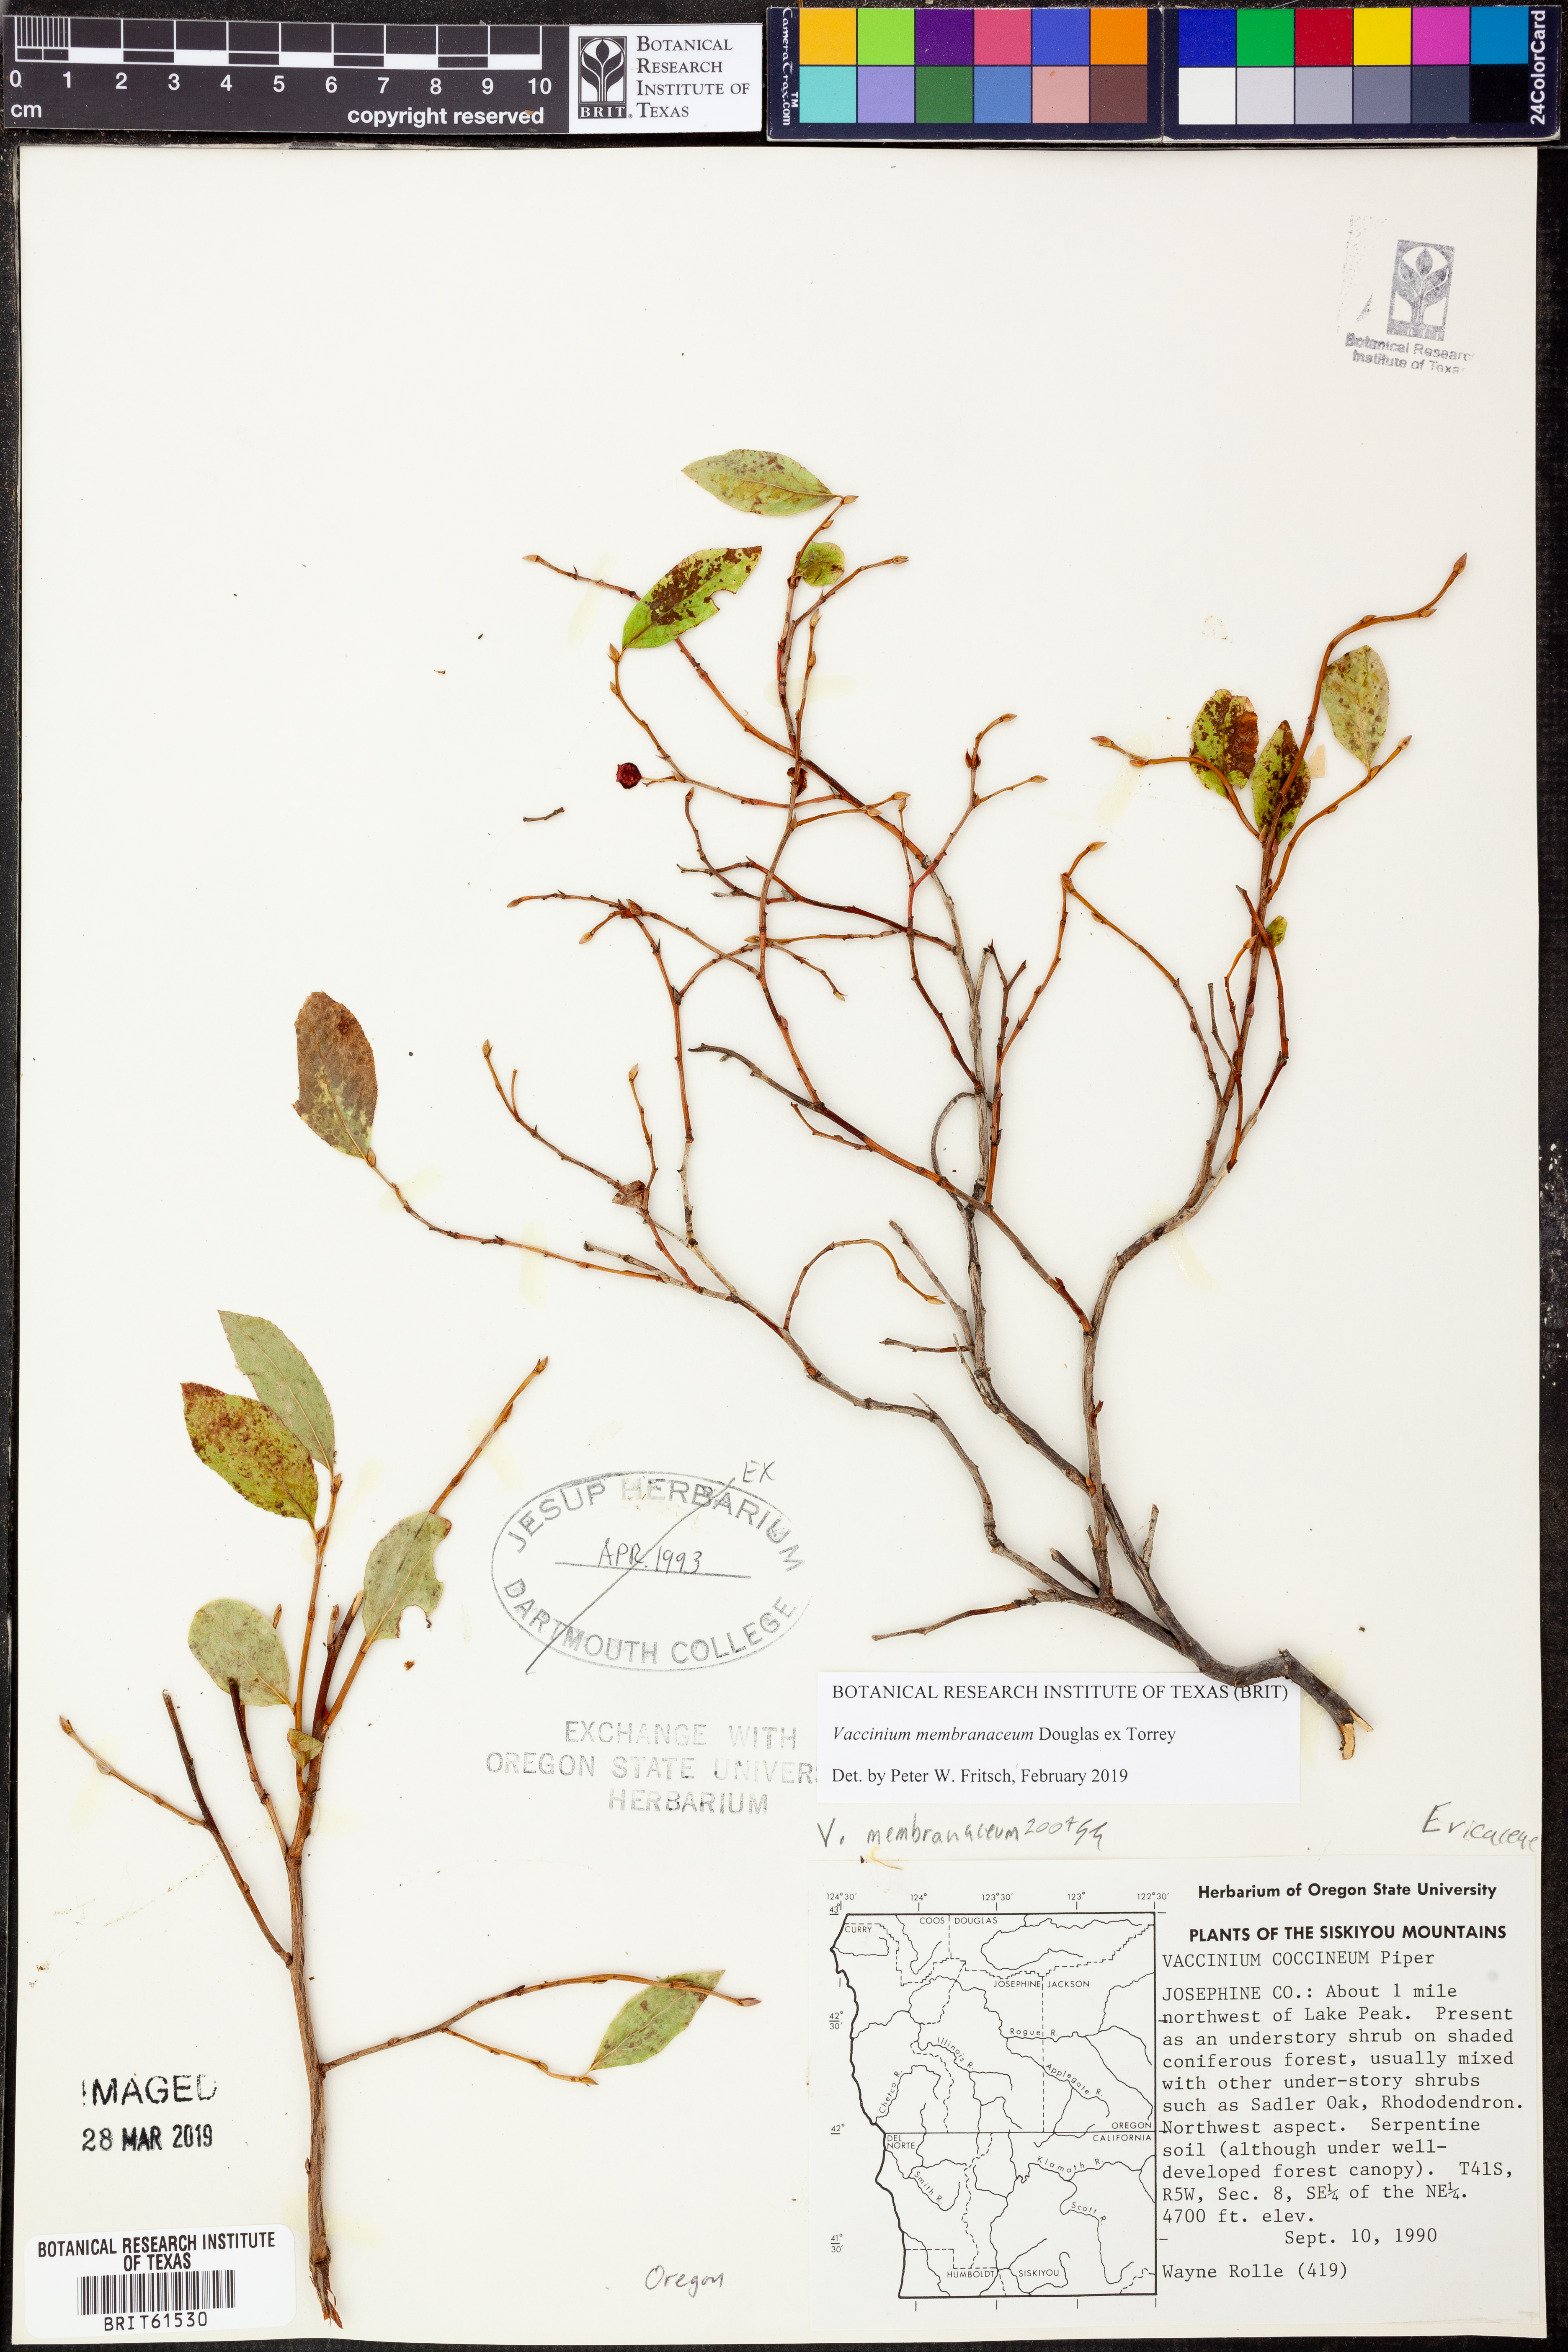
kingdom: Plantae
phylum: Tracheophyta
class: Magnoliopsida
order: Ericales
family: Ericaceae
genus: Vaccinium
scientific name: Vaccinium membranaceum
